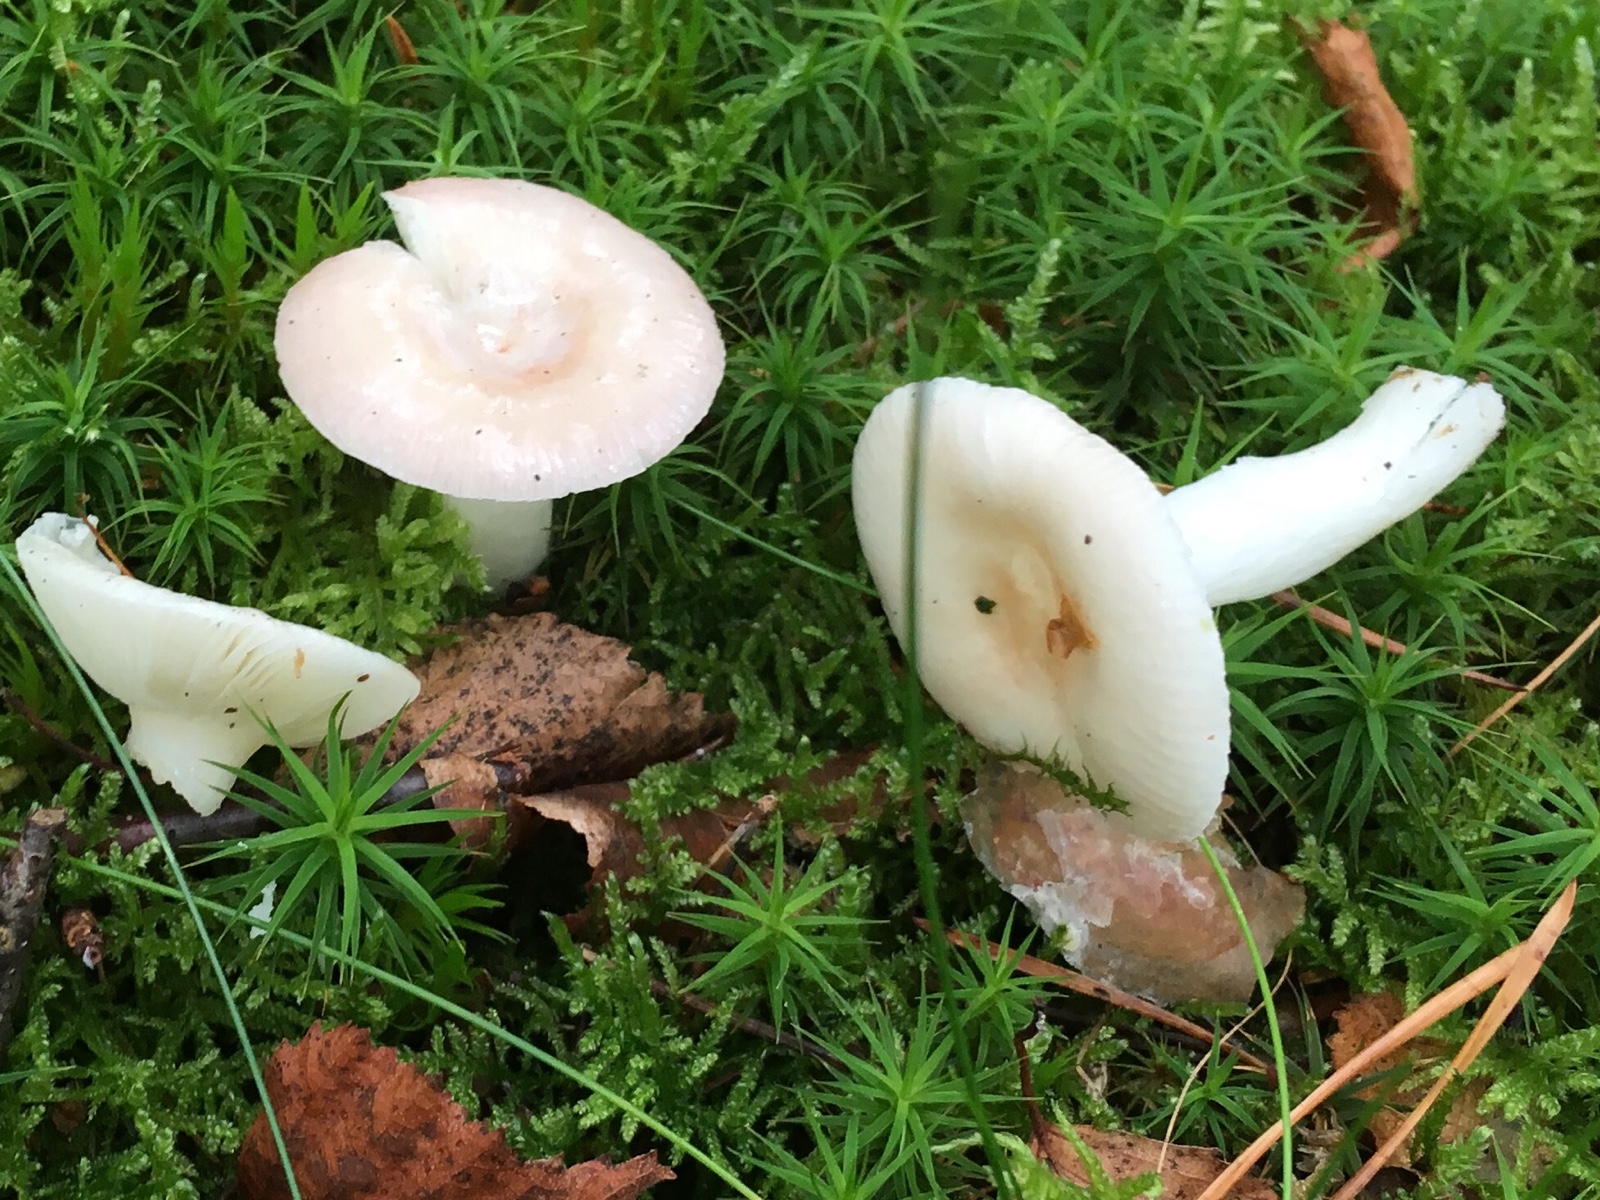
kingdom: Fungi
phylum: Basidiomycota
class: Agaricomycetes
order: Russulales
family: Russulaceae
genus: Russula
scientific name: Russula betularum
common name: bleg gift-skørhat
